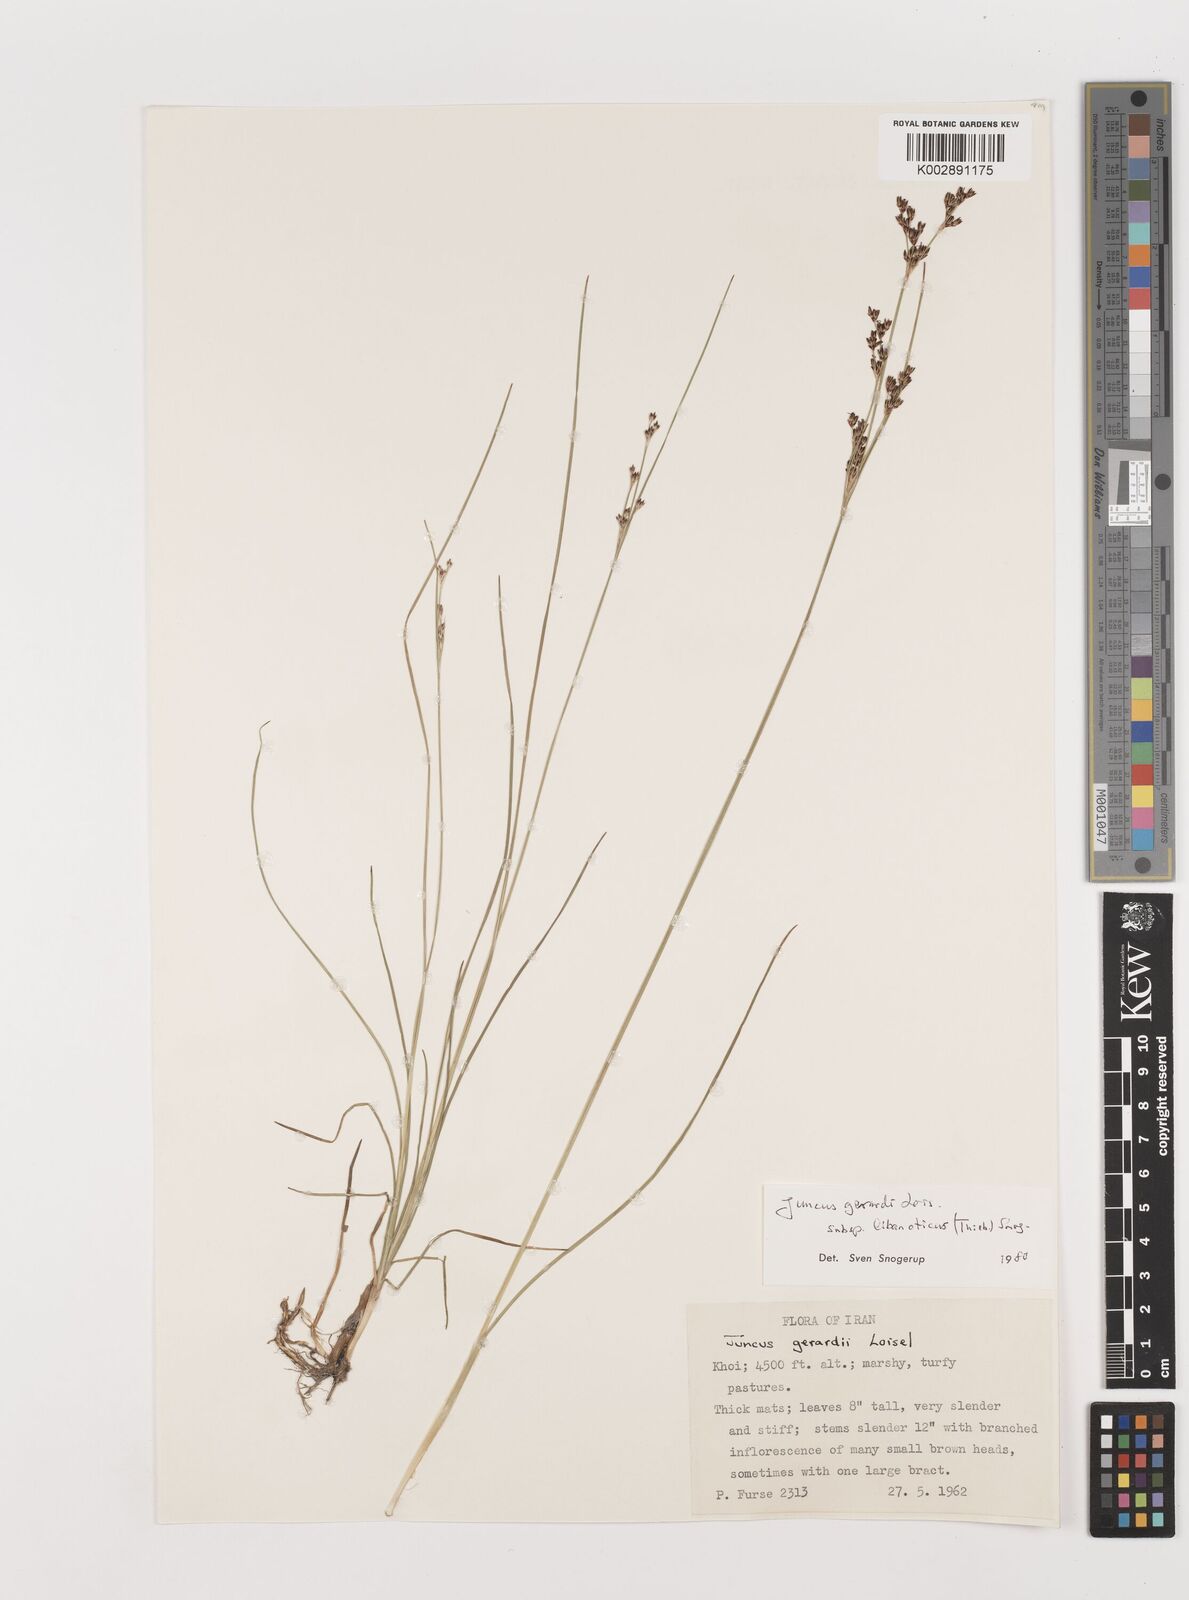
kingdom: Plantae
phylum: Tracheophyta
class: Liliopsida
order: Poales
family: Juncaceae
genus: Juncus
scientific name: Juncus persicus
